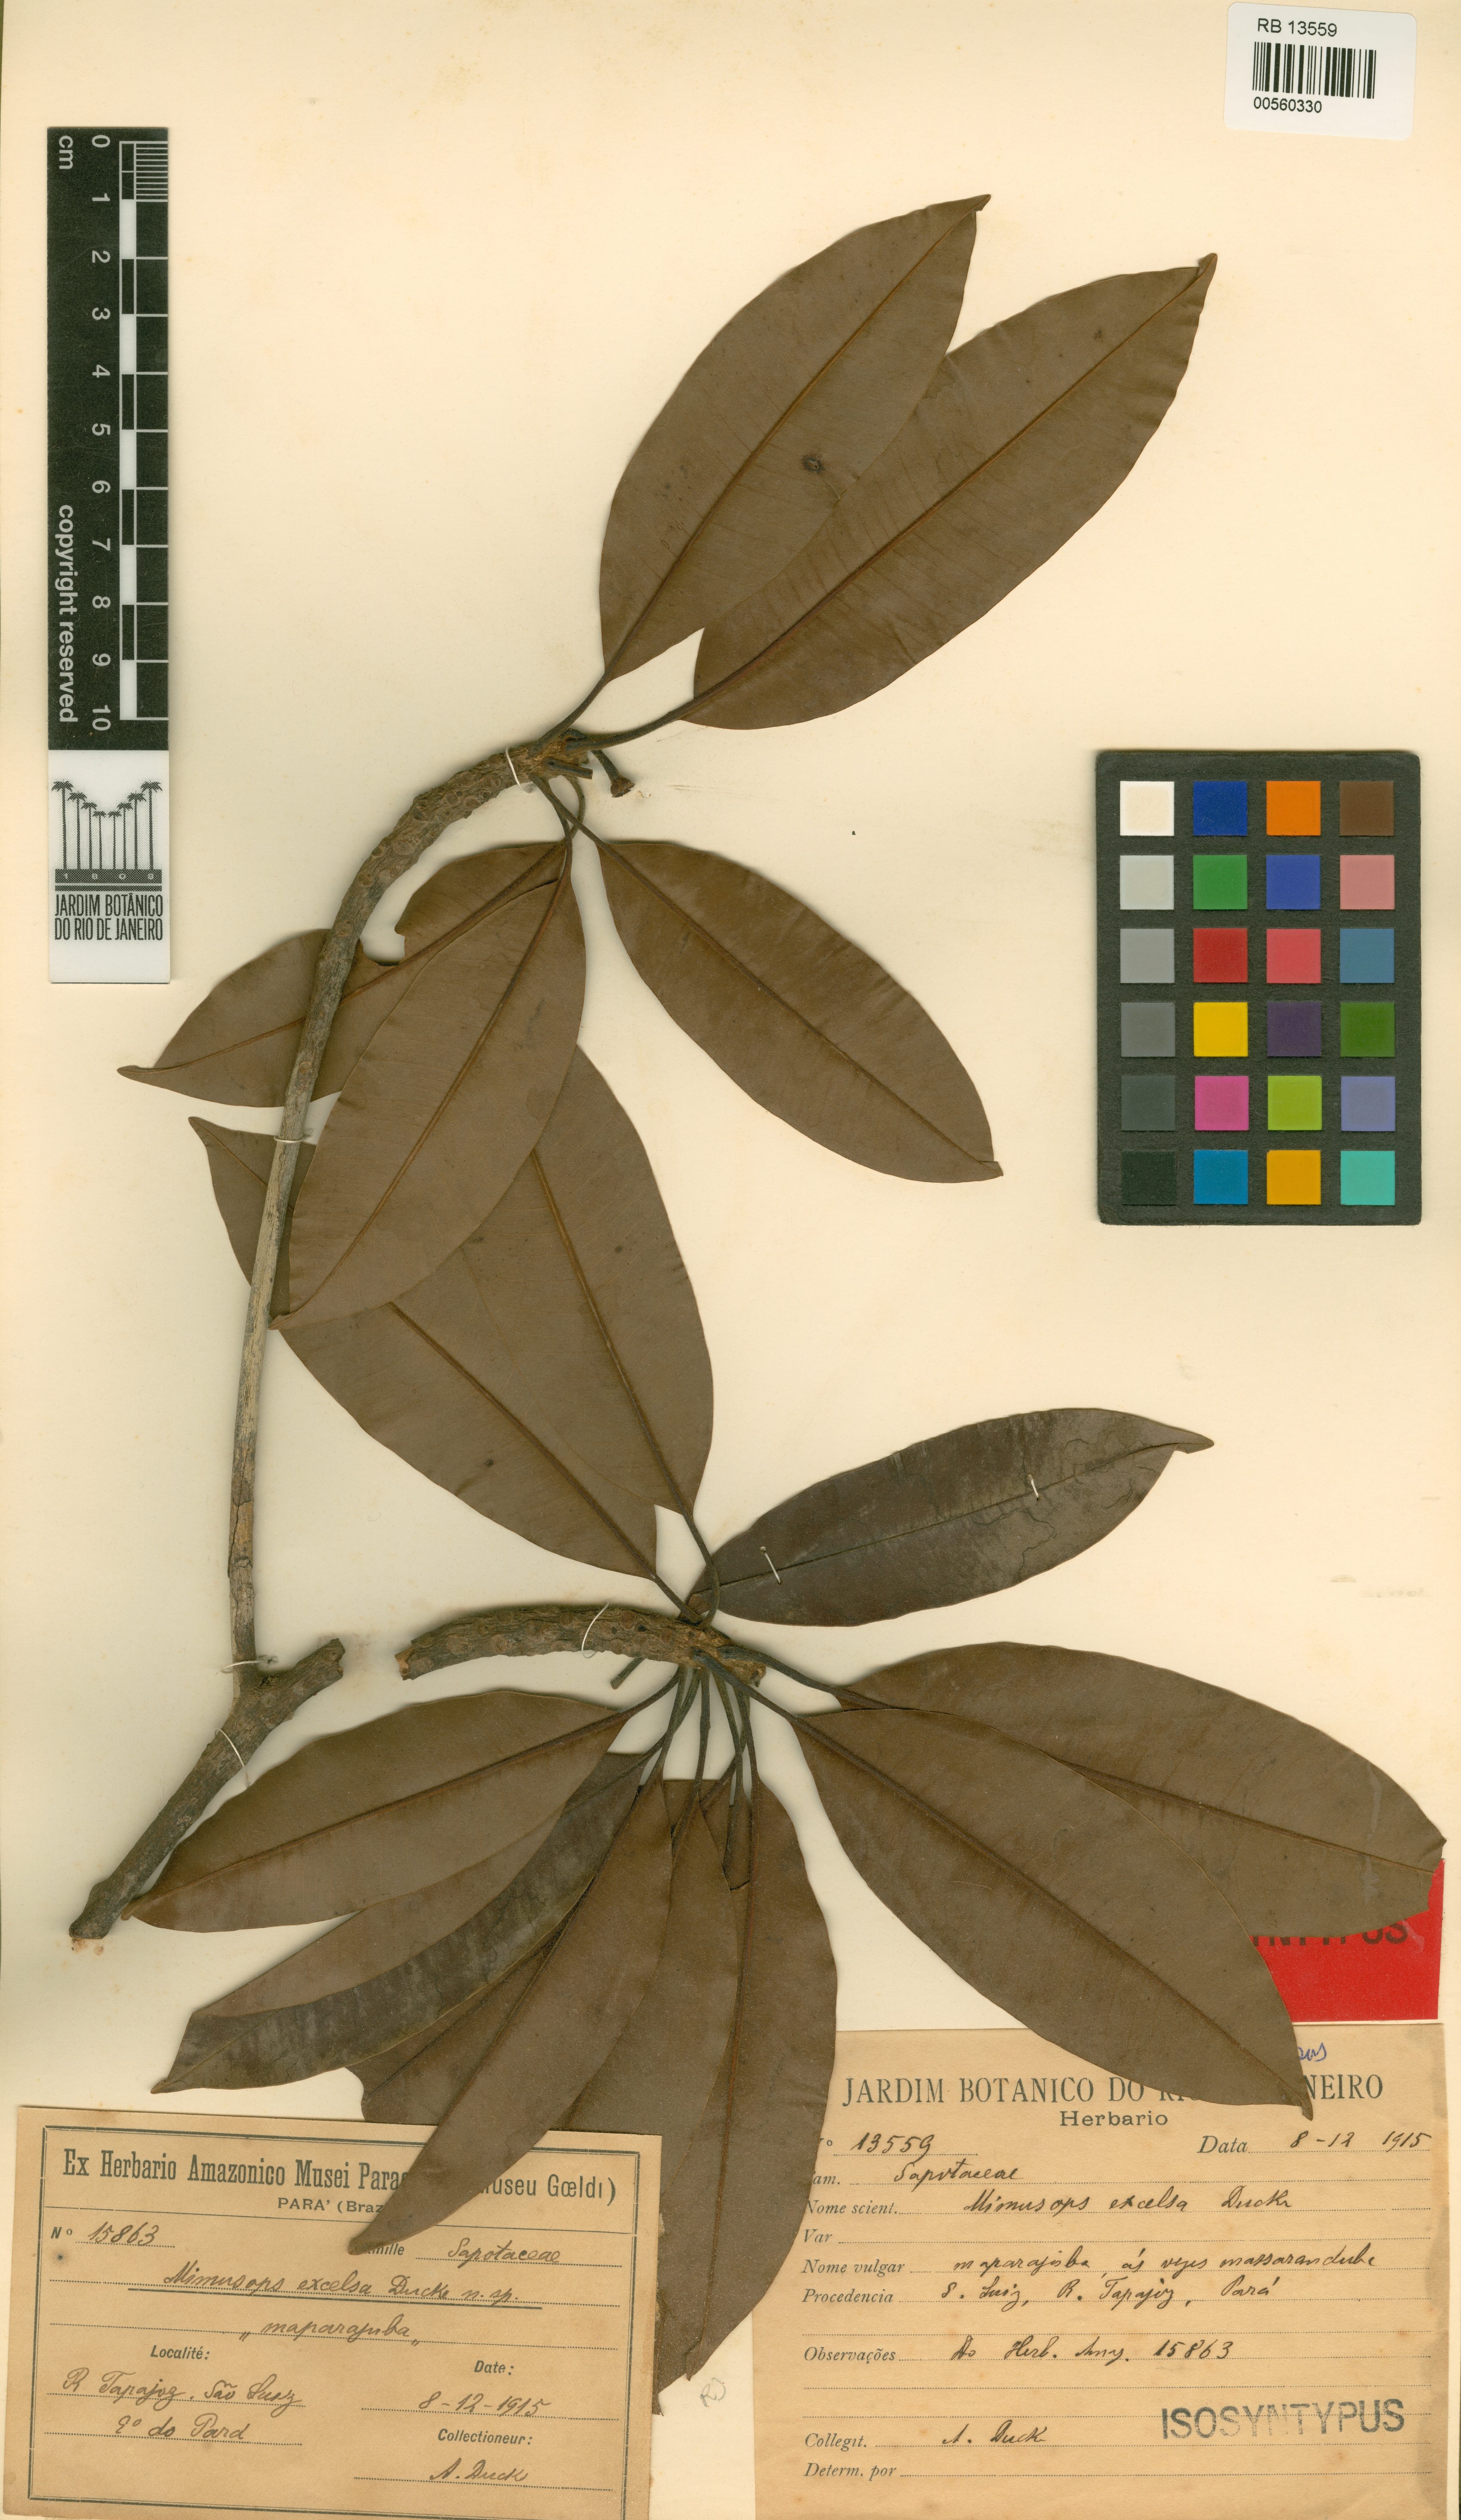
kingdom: Plantae
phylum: Tracheophyta
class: Magnoliopsida
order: Ericales
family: Sapotaceae
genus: Manilkara
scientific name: Manilkara excelsa
